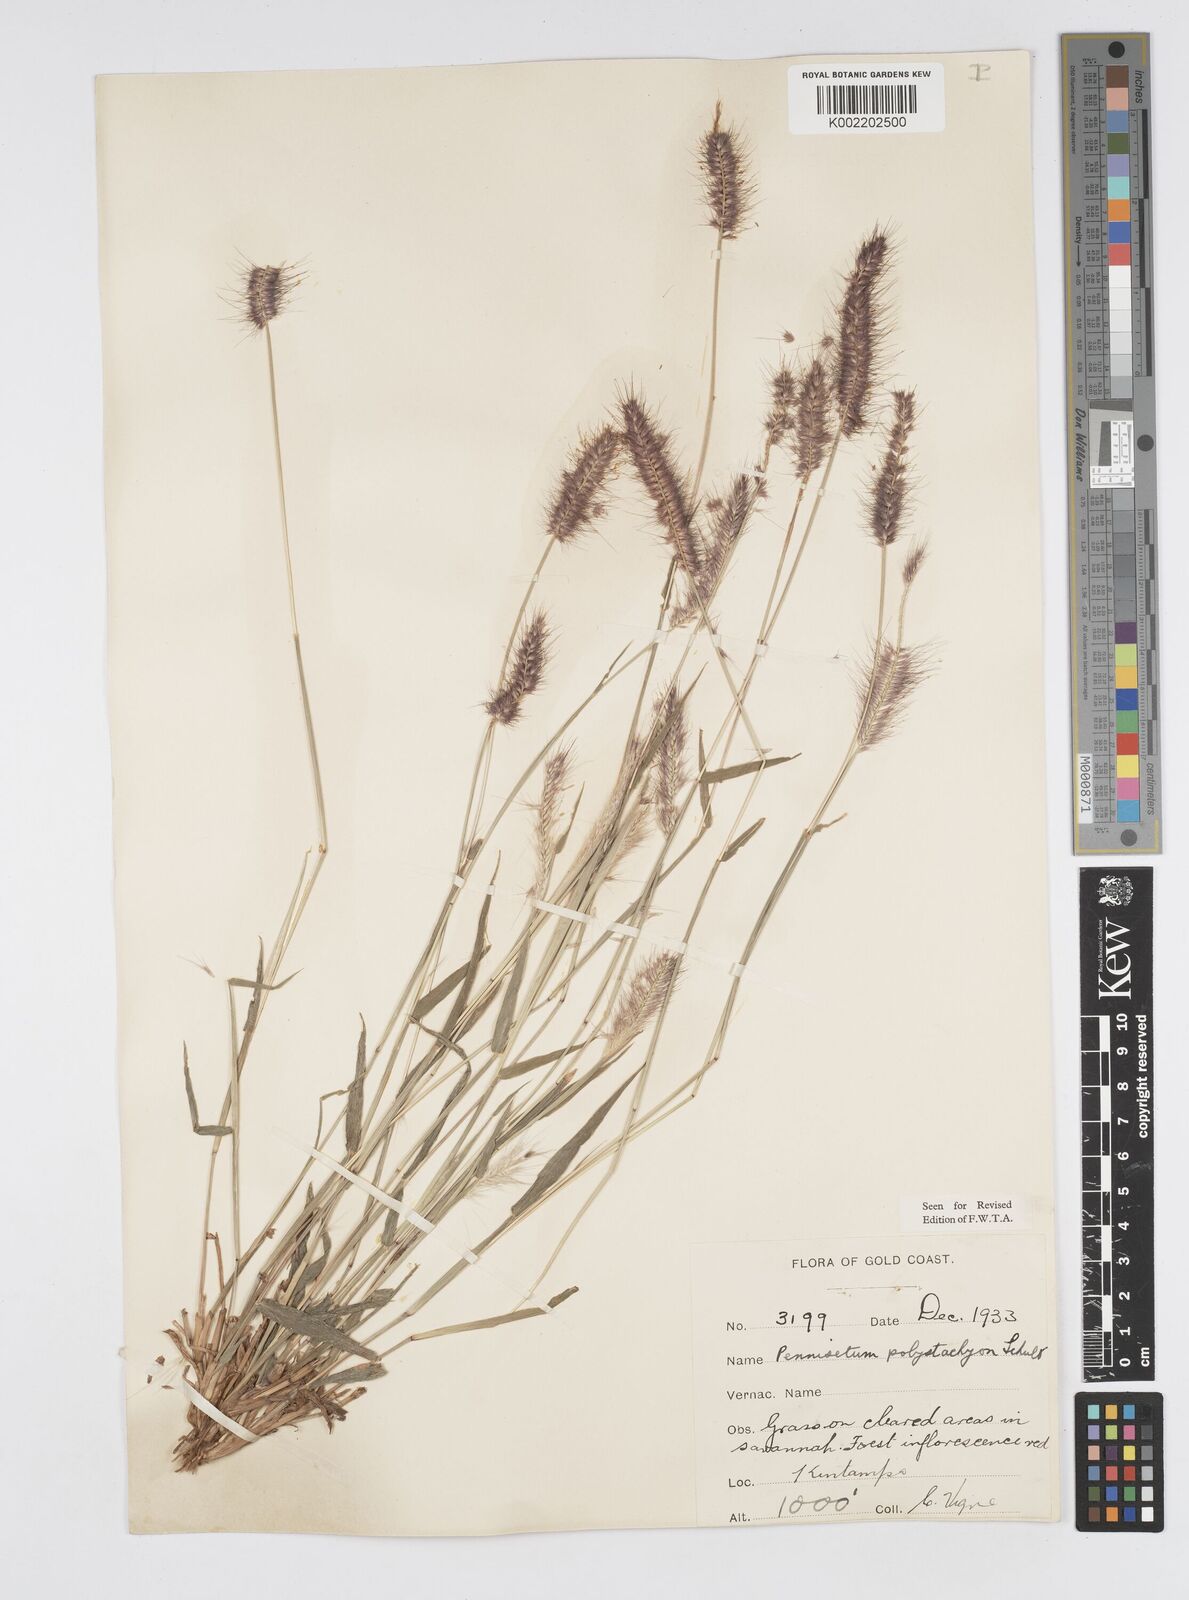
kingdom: Plantae
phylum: Tracheophyta
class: Liliopsida
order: Poales
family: Poaceae
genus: Setaria
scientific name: Setaria parviflora
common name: Knotroot bristle-grass
